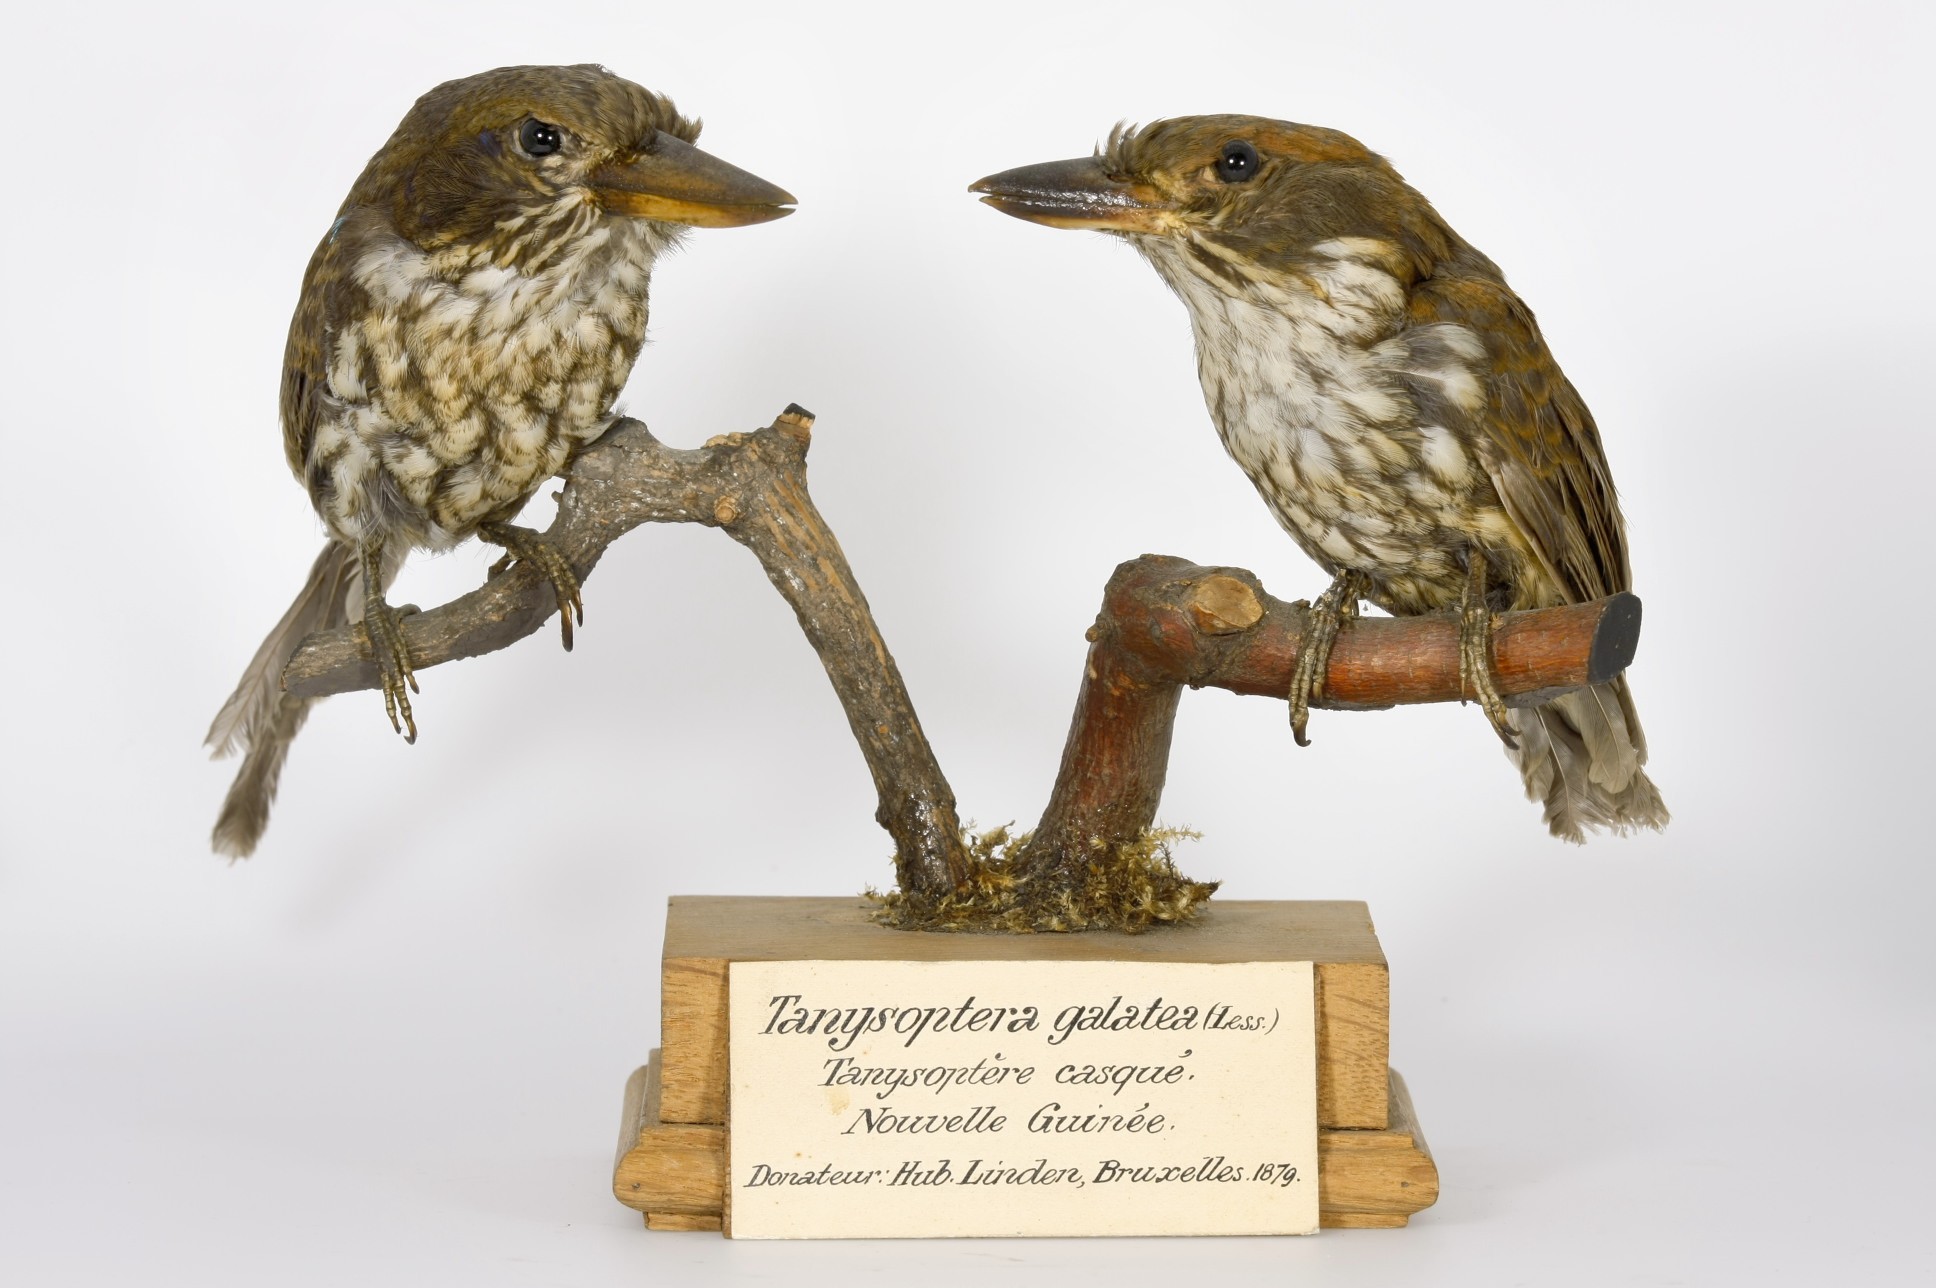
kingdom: Animalia
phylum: Chordata
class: Aves
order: Coraciiformes
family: Alcedinidae
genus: Tanysiptera
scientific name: Tanysiptera galatea
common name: Common paradise-kingfisher
